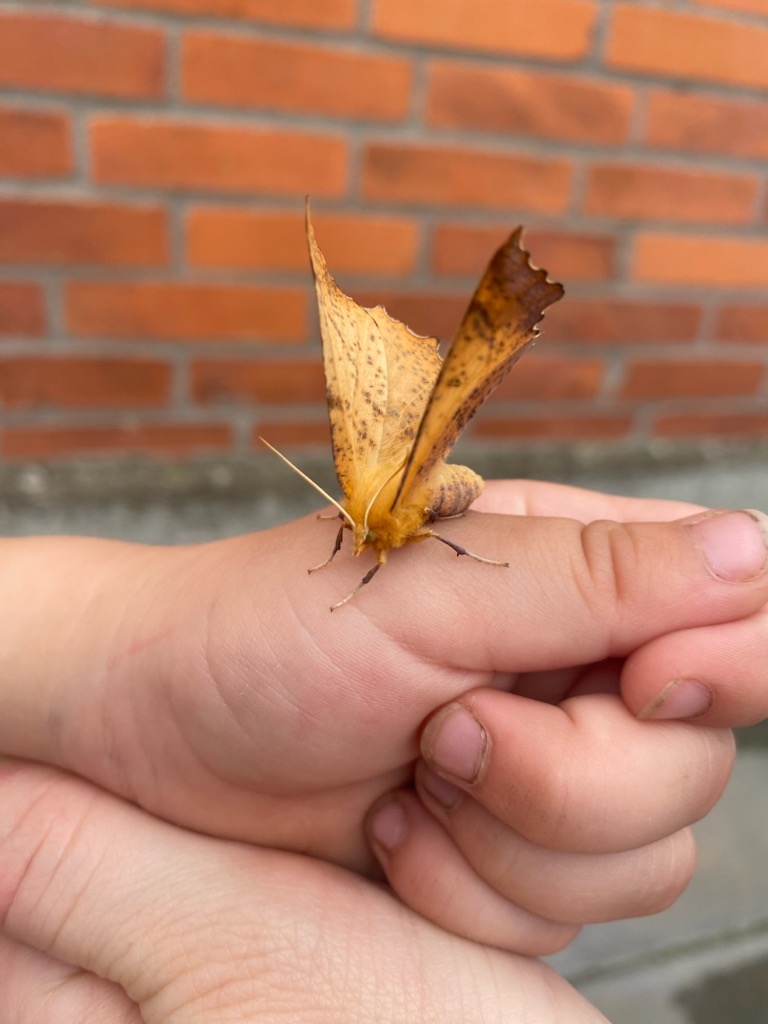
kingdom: Animalia
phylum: Arthropoda
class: Insecta
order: Lepidoptera
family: Geometridae
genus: Ennomos
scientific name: Ennomos autumnaria
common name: Stor tandmåler
